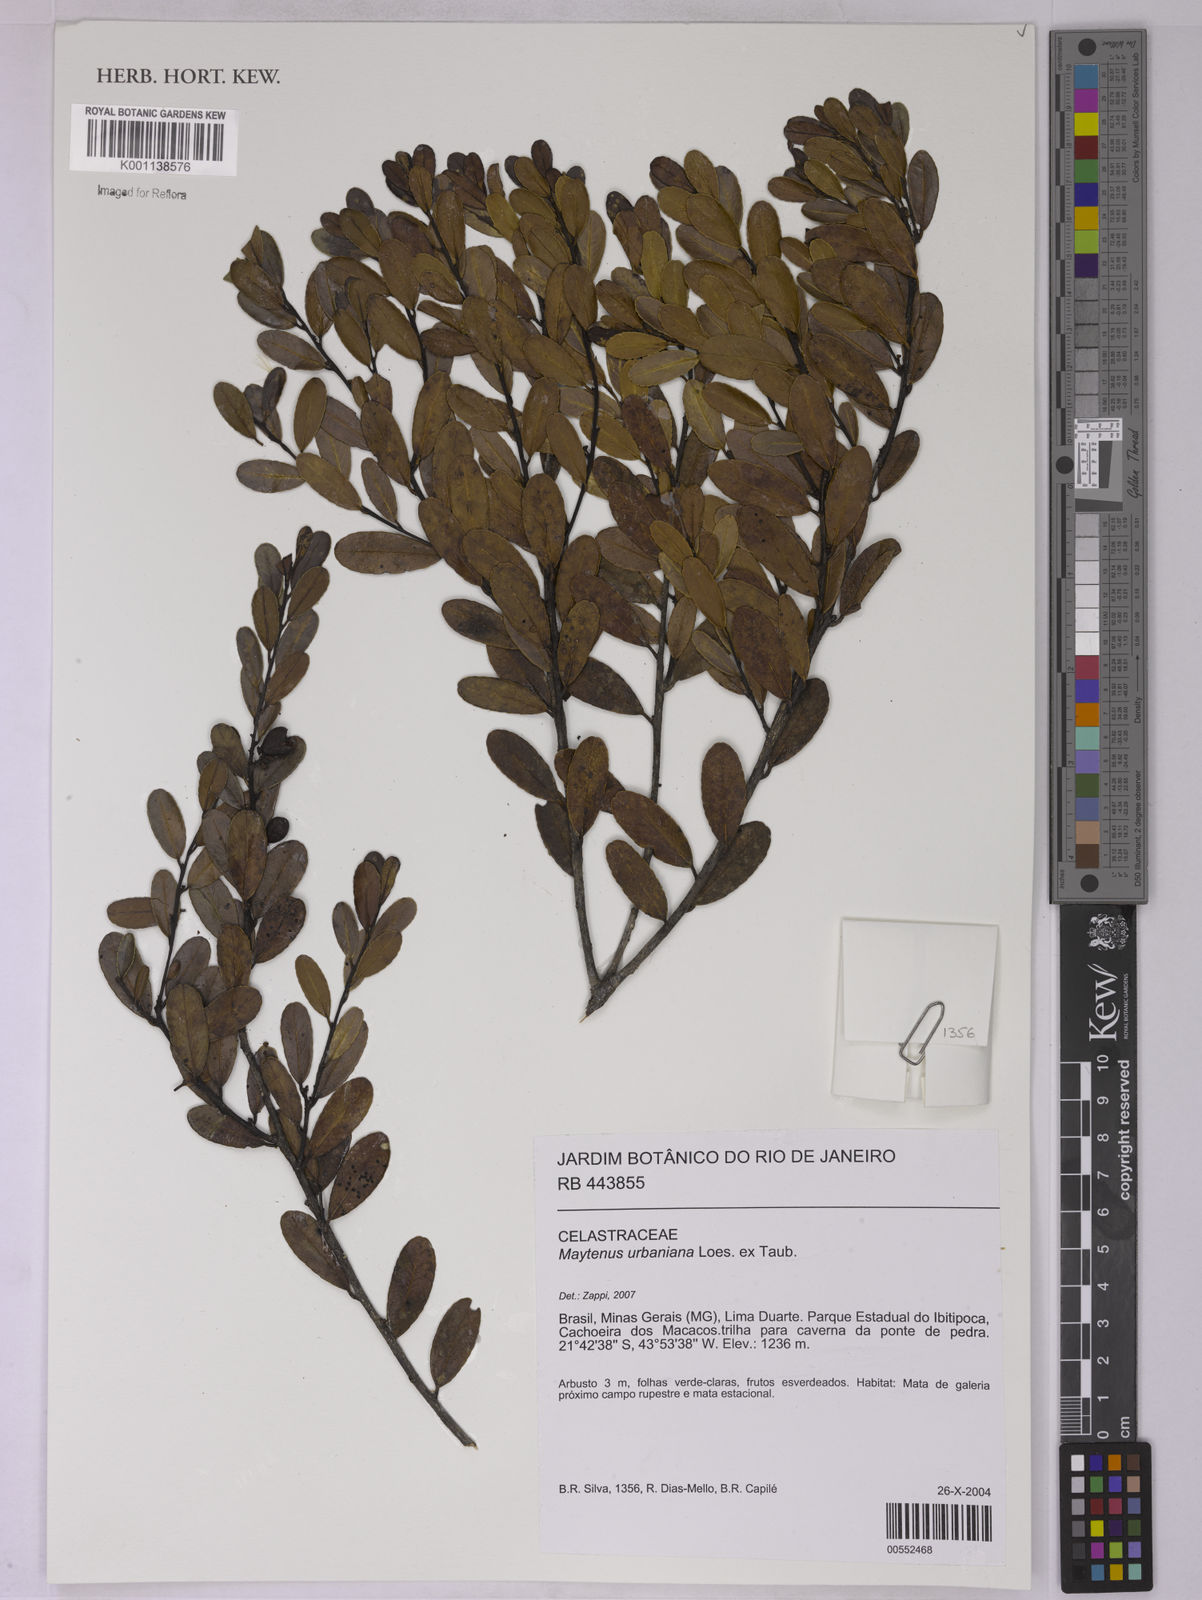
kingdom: Plantae
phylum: Tracheophyta
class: Magnoliopsida
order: Celastrales
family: Celastraceae
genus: Monteverdia
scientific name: Monteverdia urbaniana
